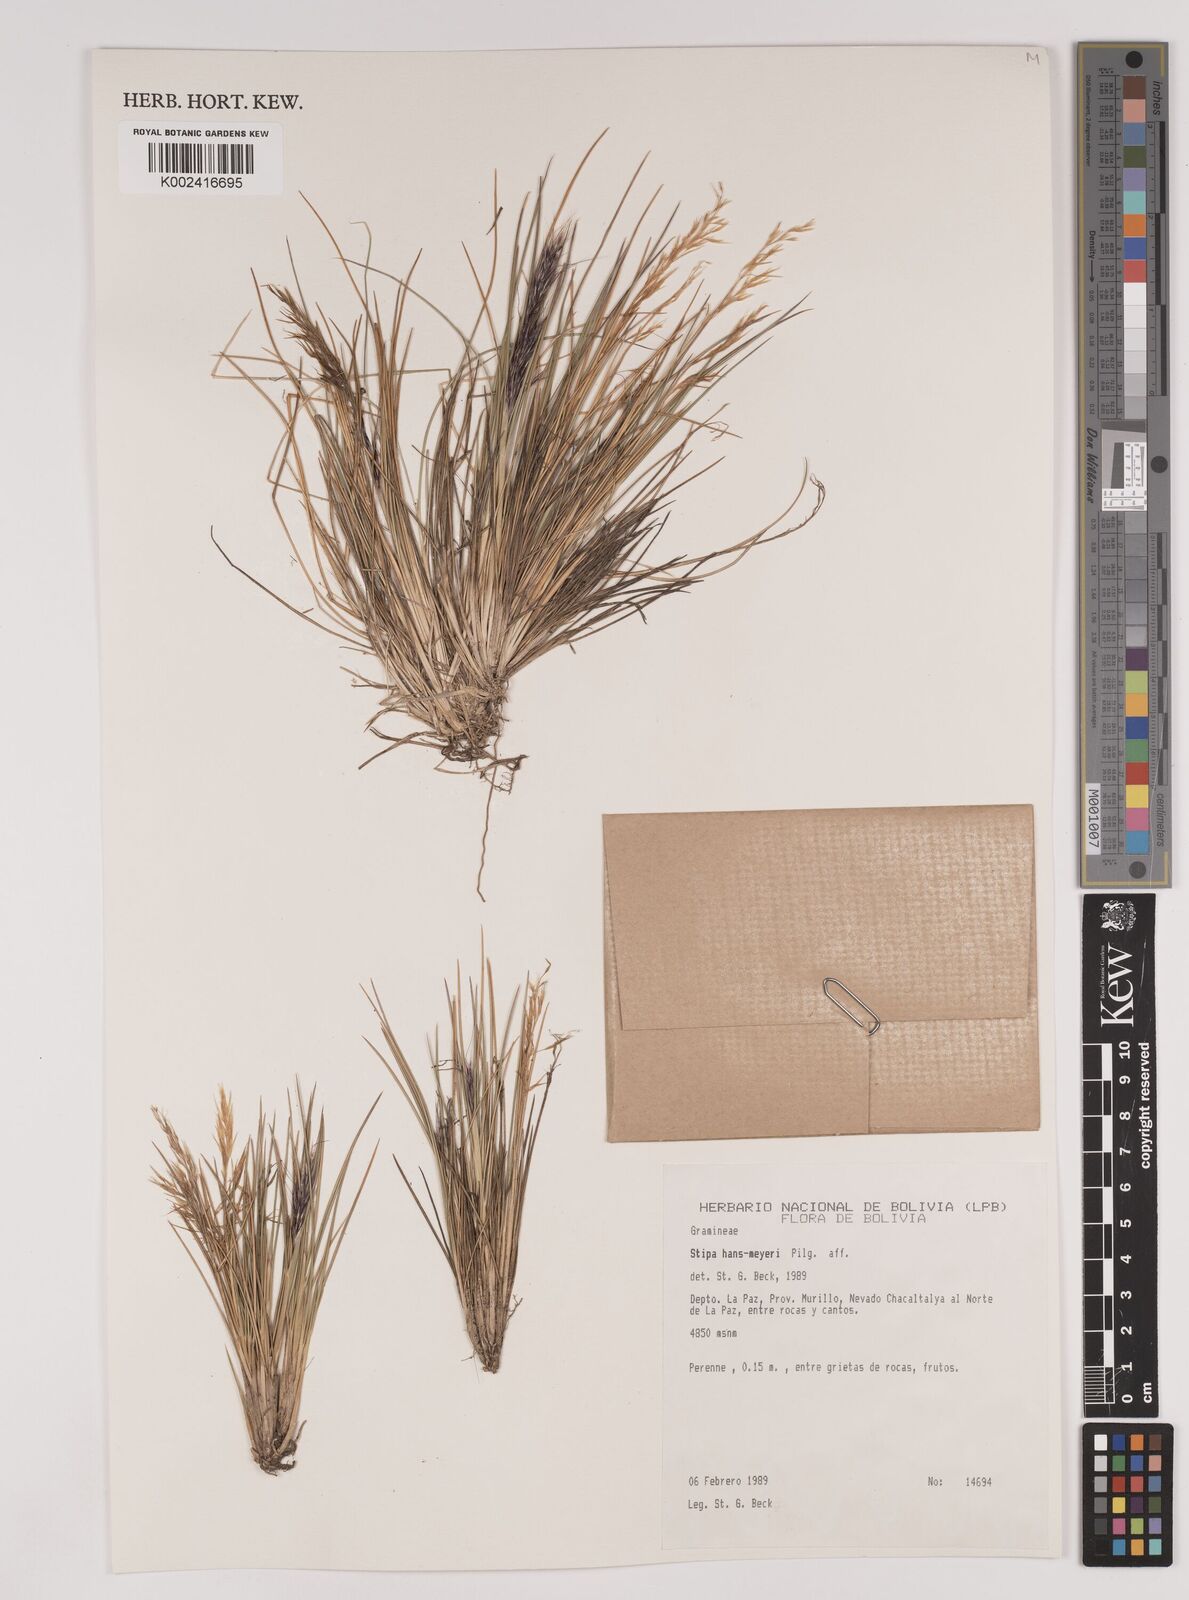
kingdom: Plantae
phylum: Tracheophyta
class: Liliopsida
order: Poales
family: Poaceae
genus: Stipa
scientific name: Stipa hans-meyeri
